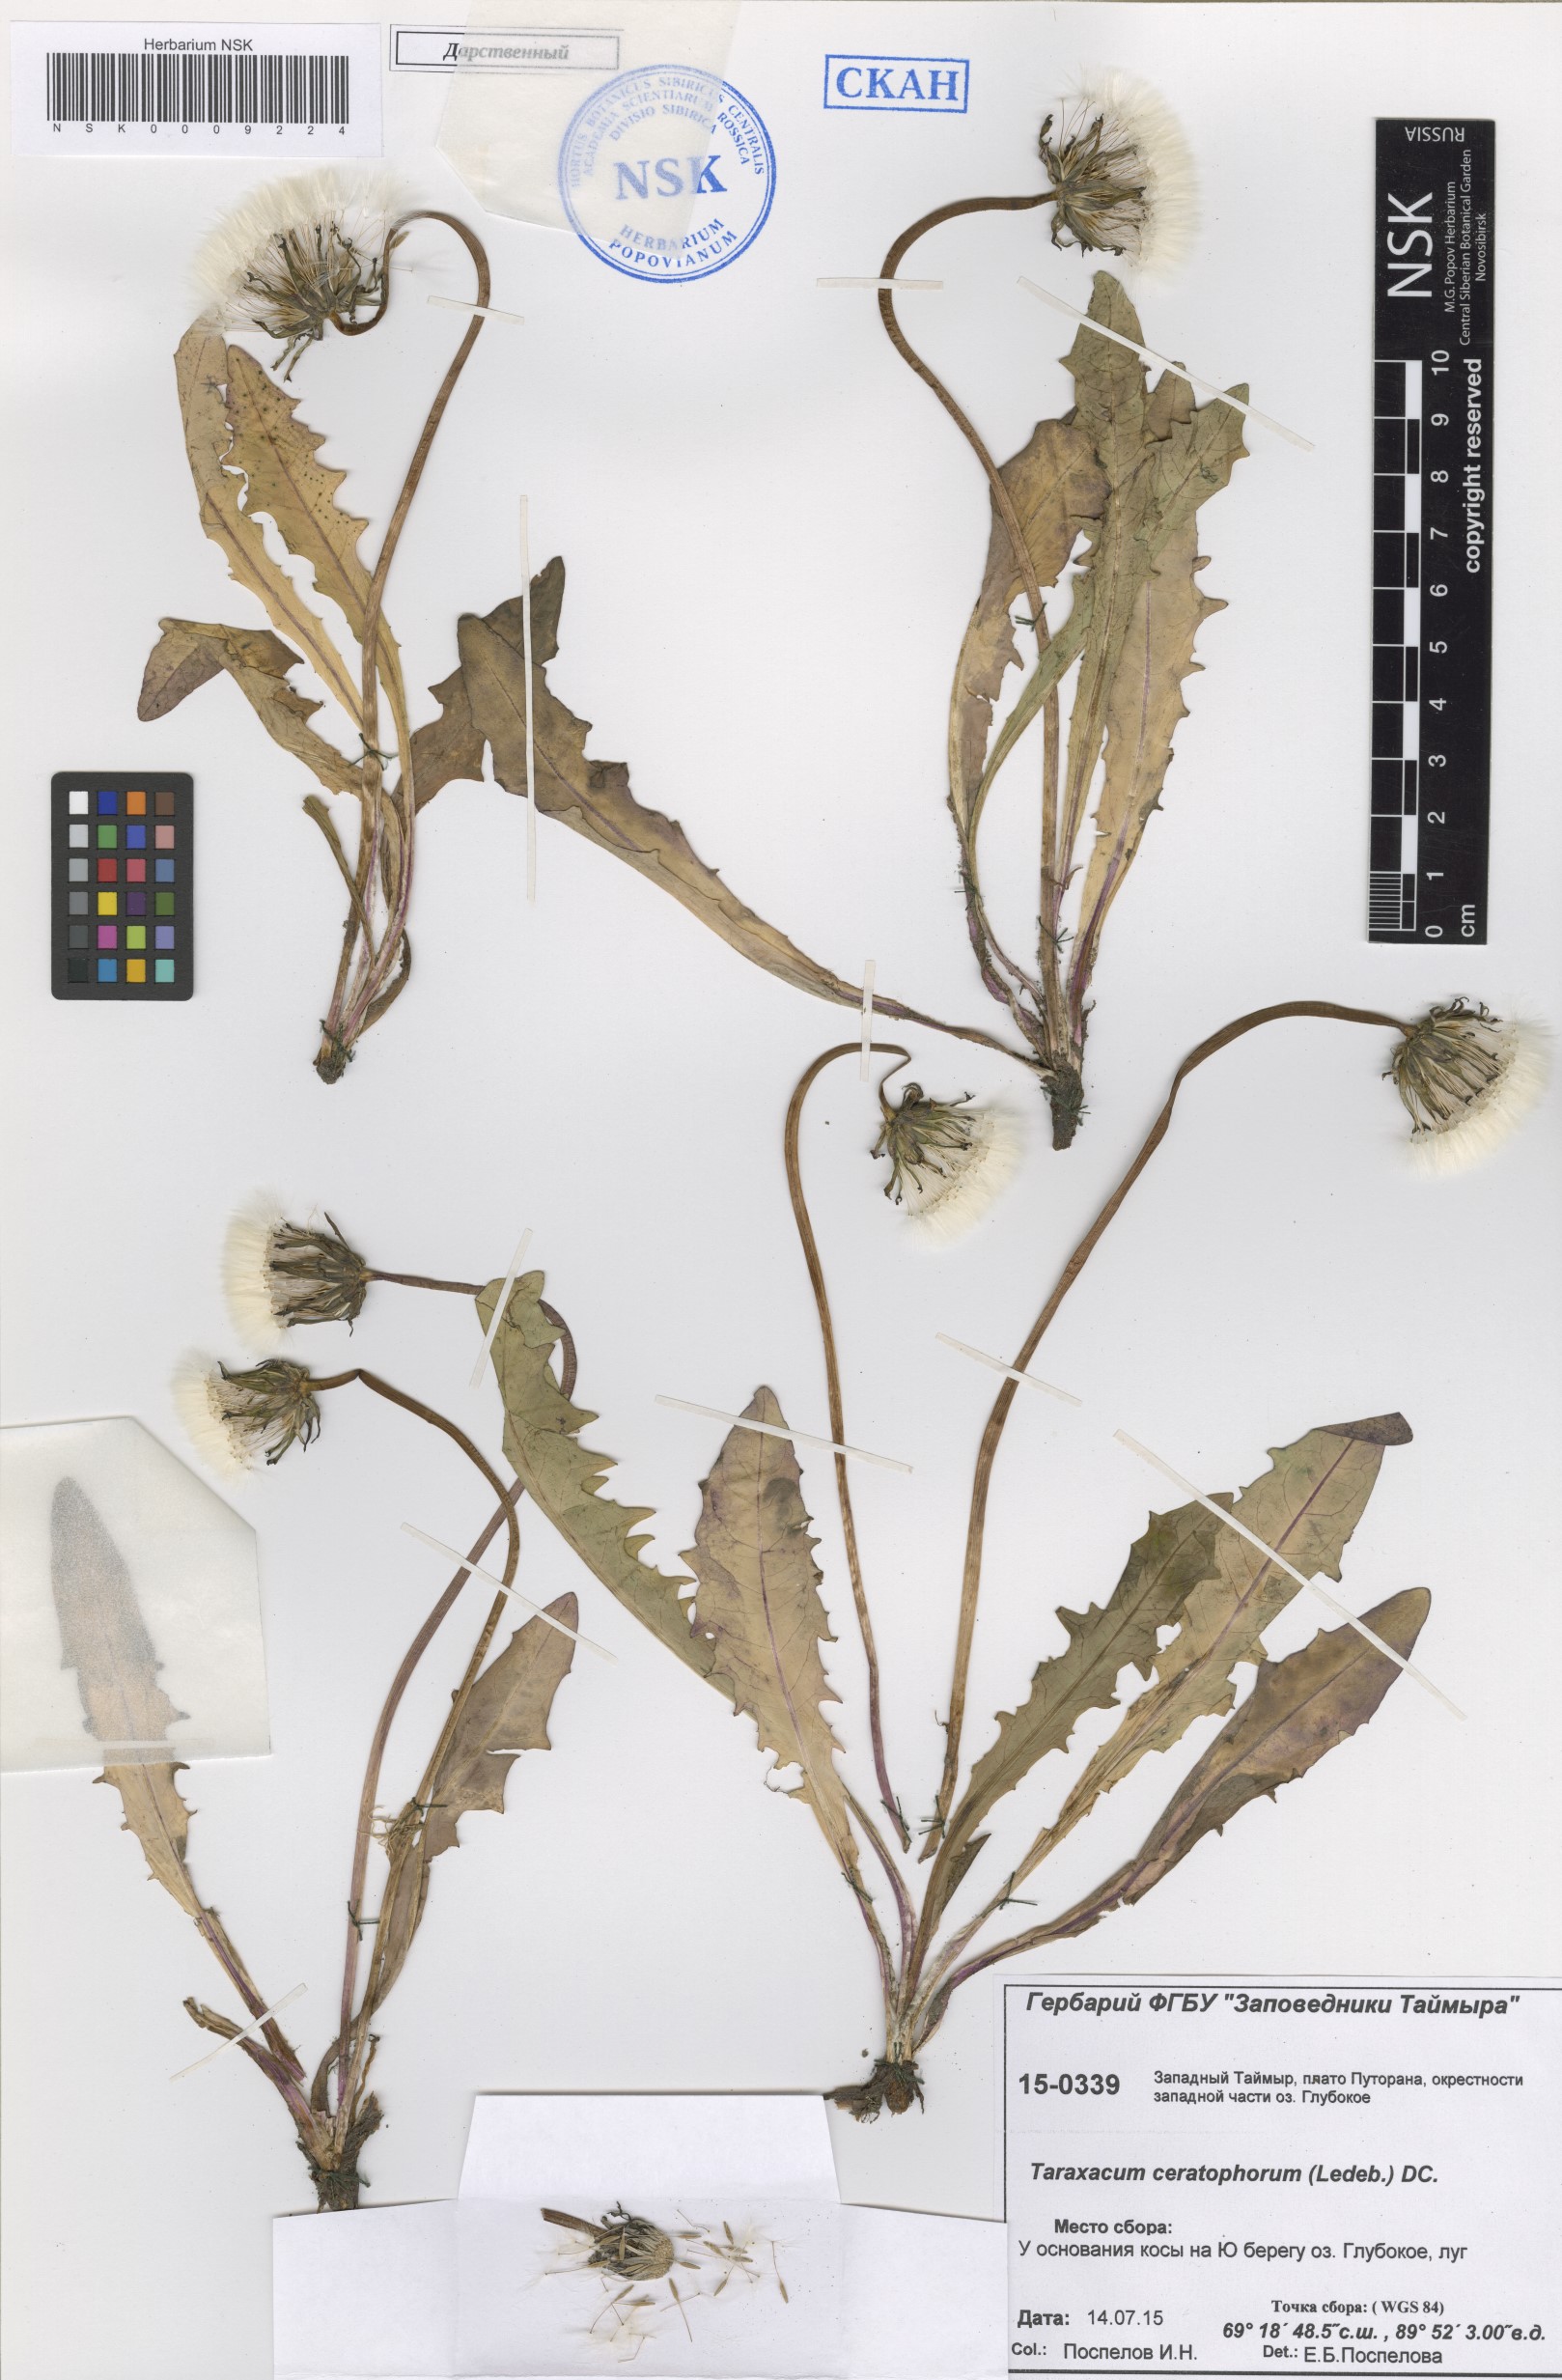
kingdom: Plantae
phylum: Tracheophyta
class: Magnoliopsida
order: Asterales
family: Asteraceae
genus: Taraxacum
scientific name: Taraxacum ceratophorum
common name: Horn-bearing dandelion
